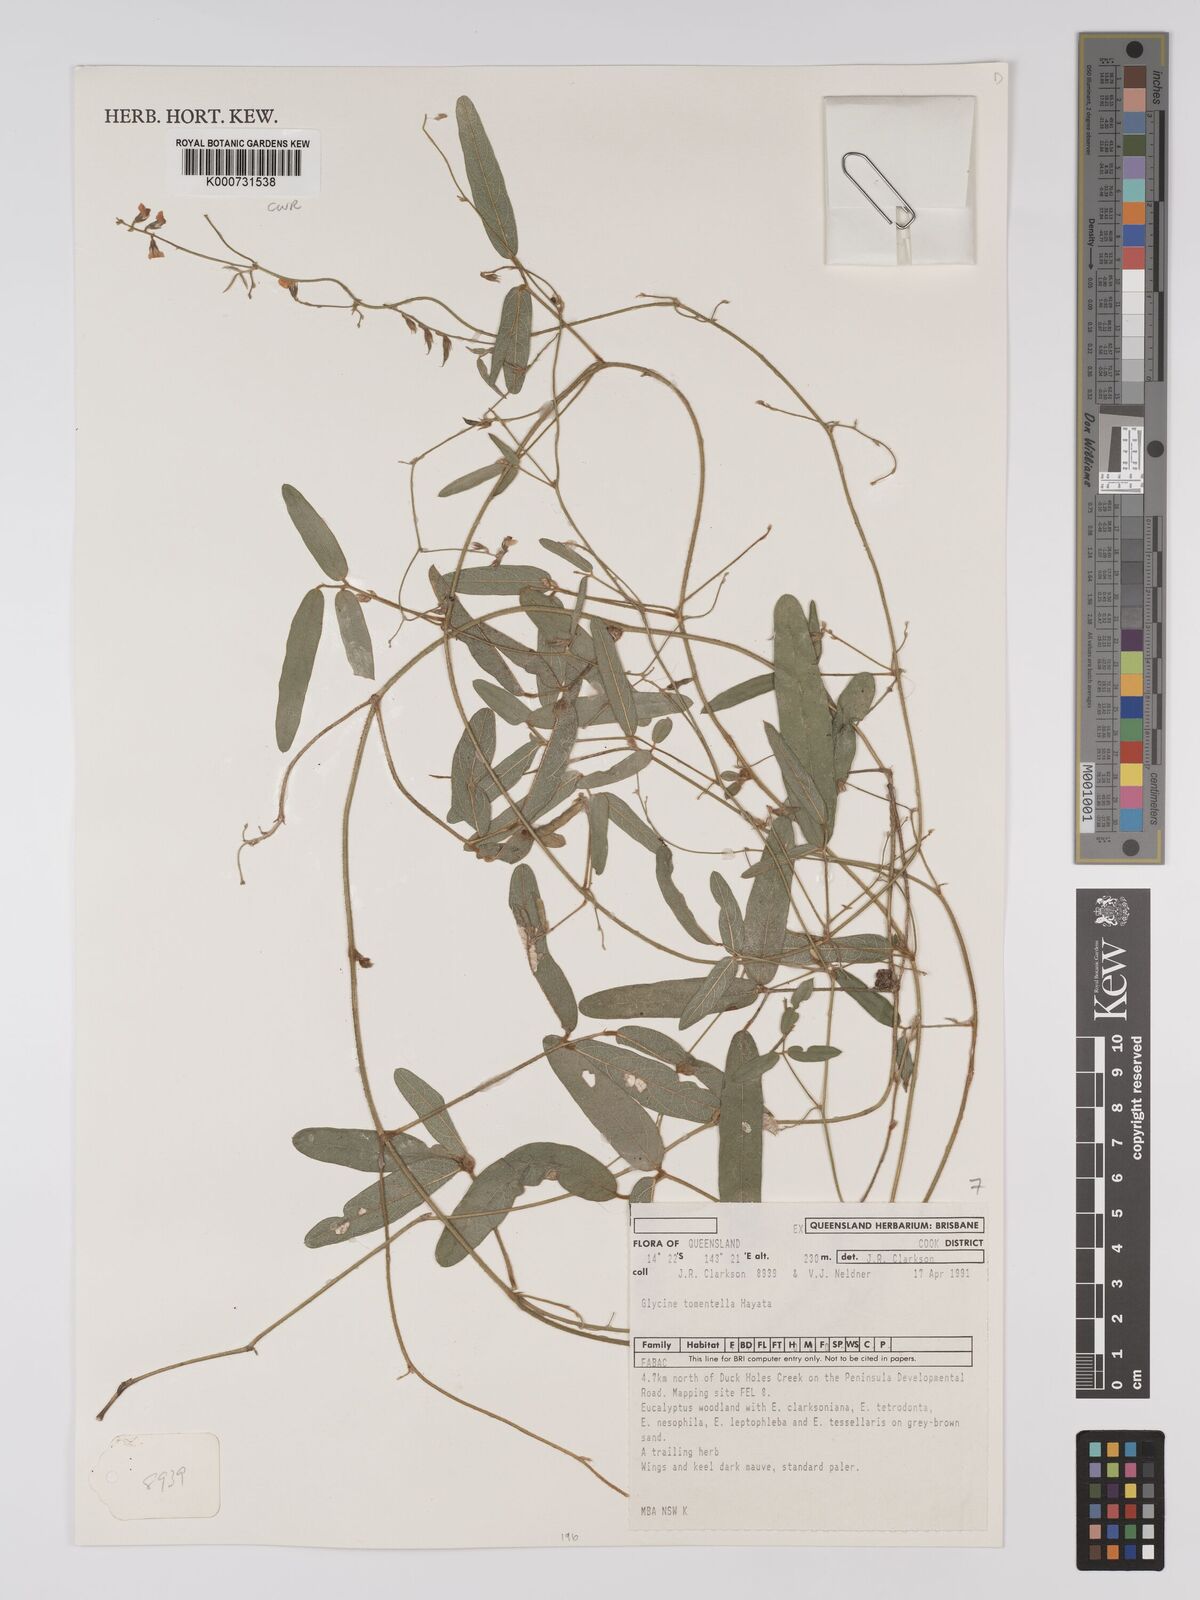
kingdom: Plantae
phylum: Tracheophyta
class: Magnoliopsida
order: Fabales
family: Fabaceae
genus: Glycine
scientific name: Glycine tomentella
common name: Hairy glycine
